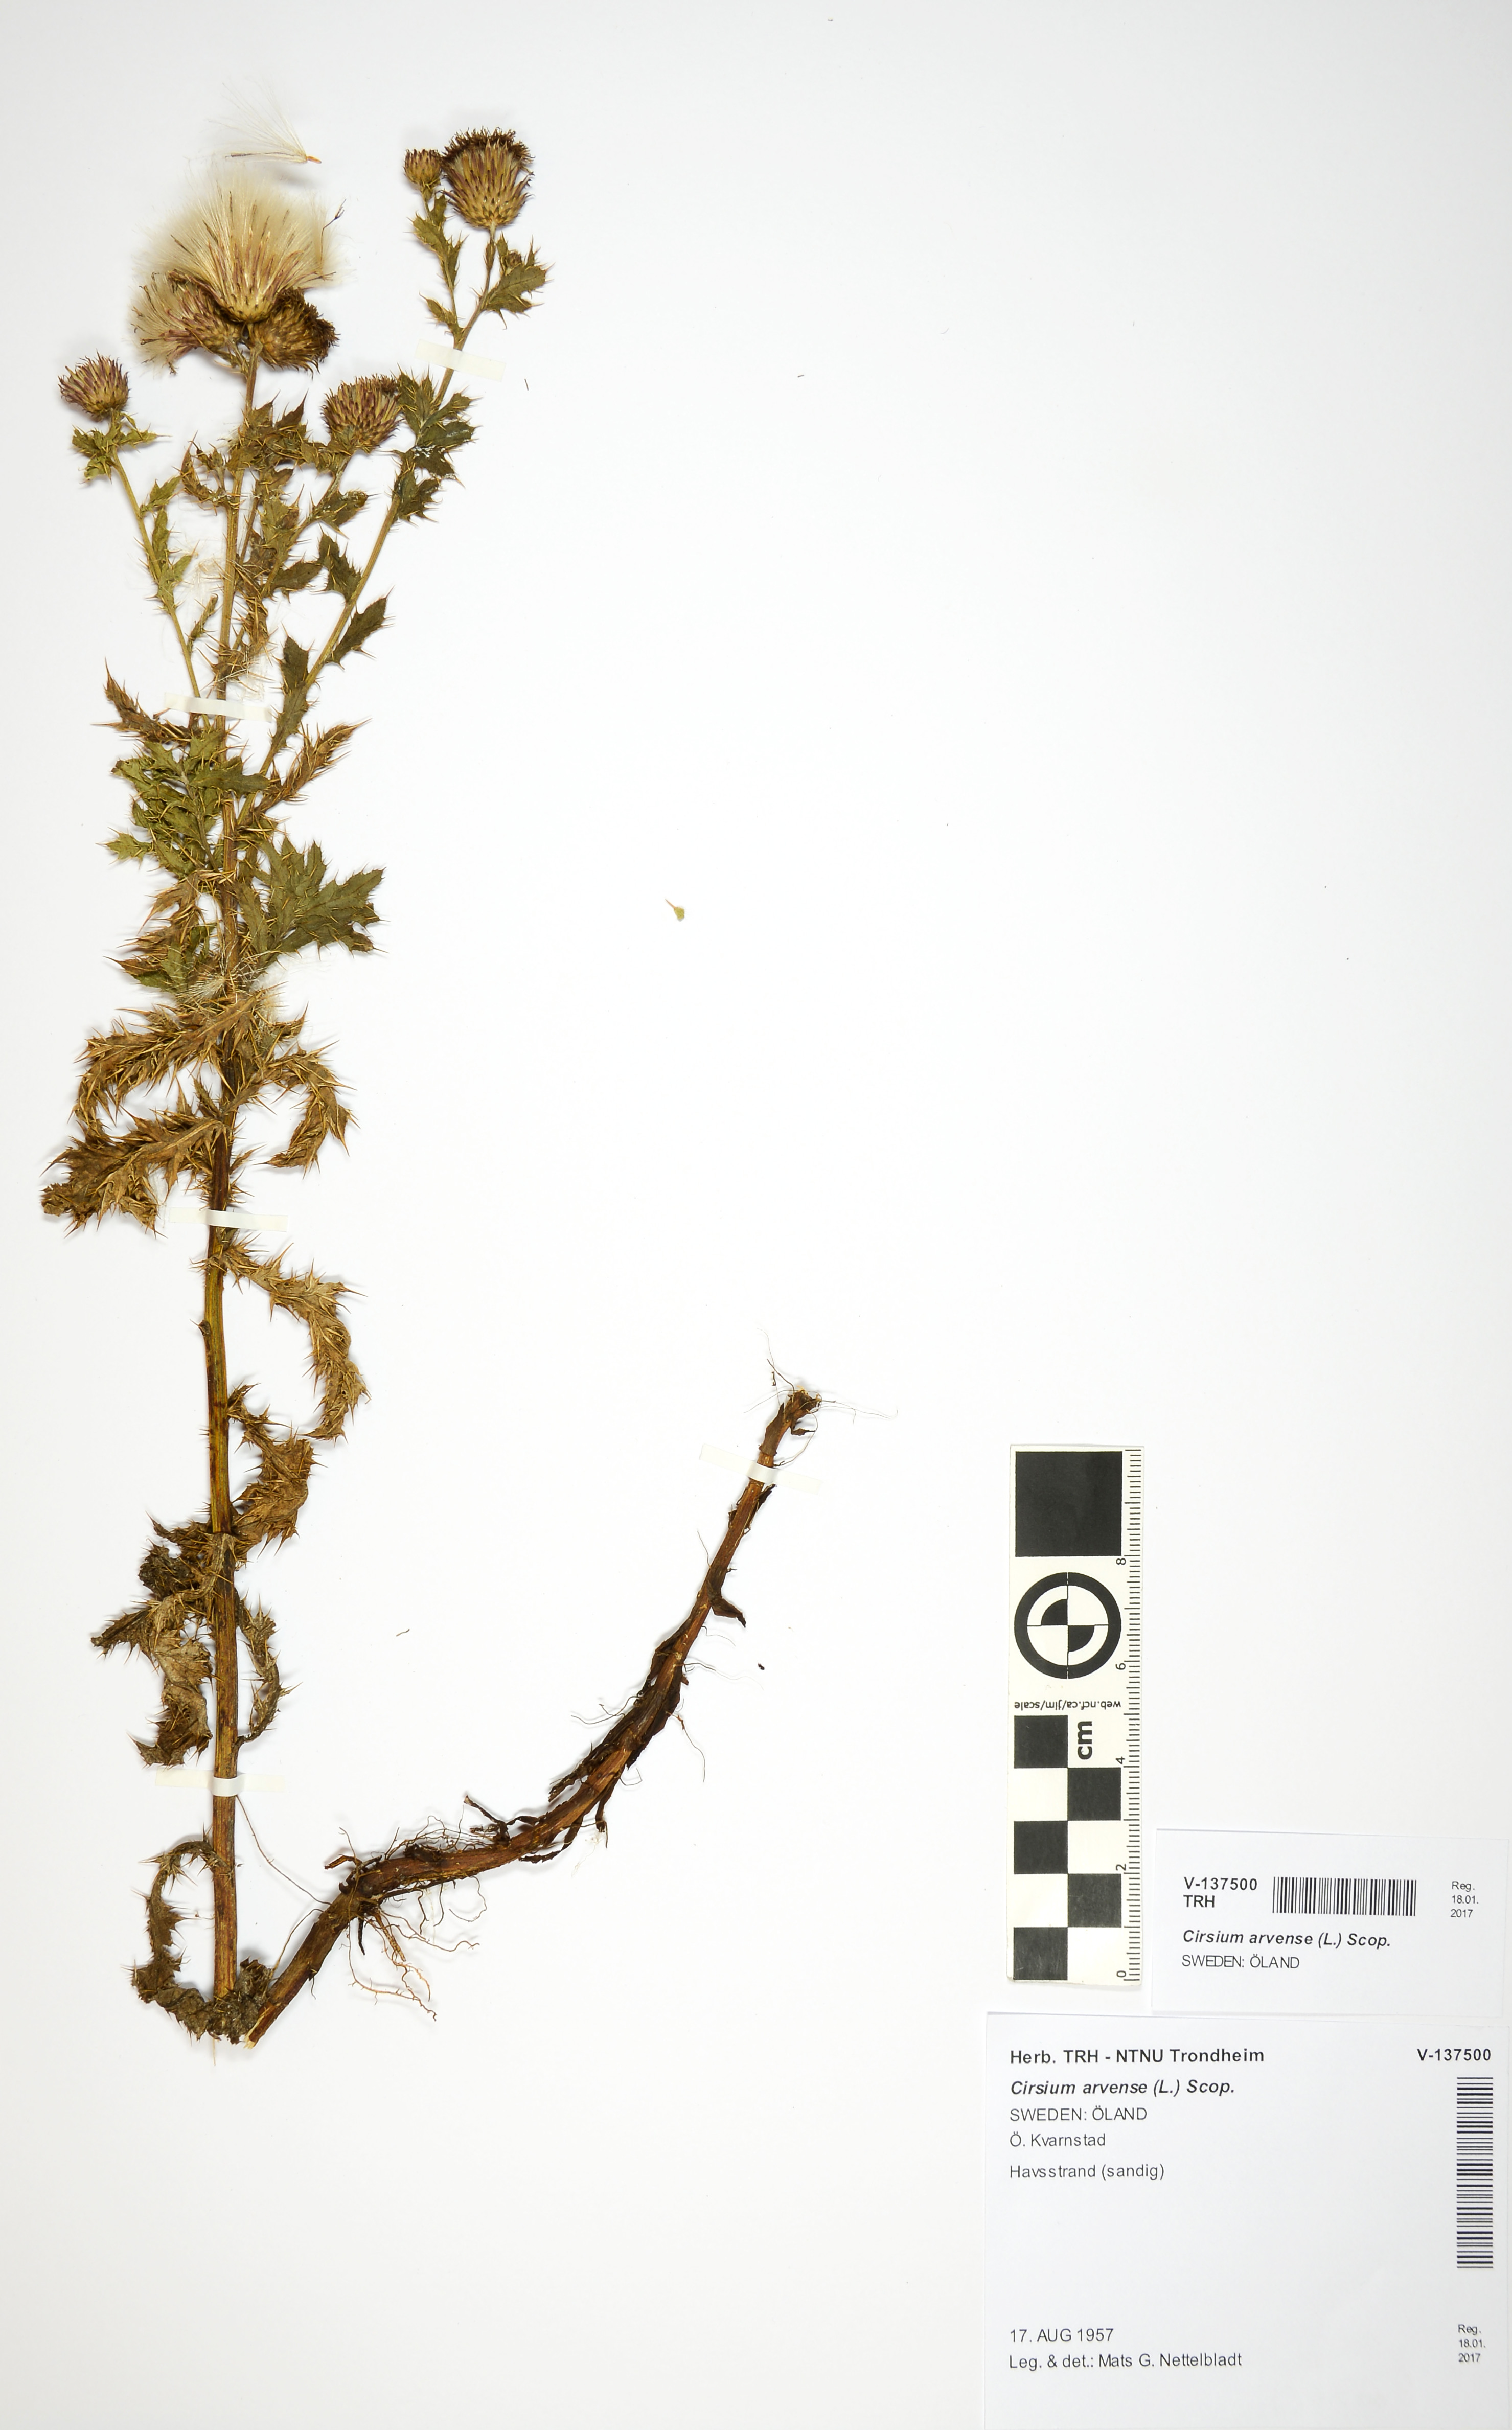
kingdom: Plantae
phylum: Tracheophyta
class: Magnoliopsida
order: Asterales
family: Asteraceae
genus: Cirsium
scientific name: Cirsium arvense
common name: Creeping thistle
